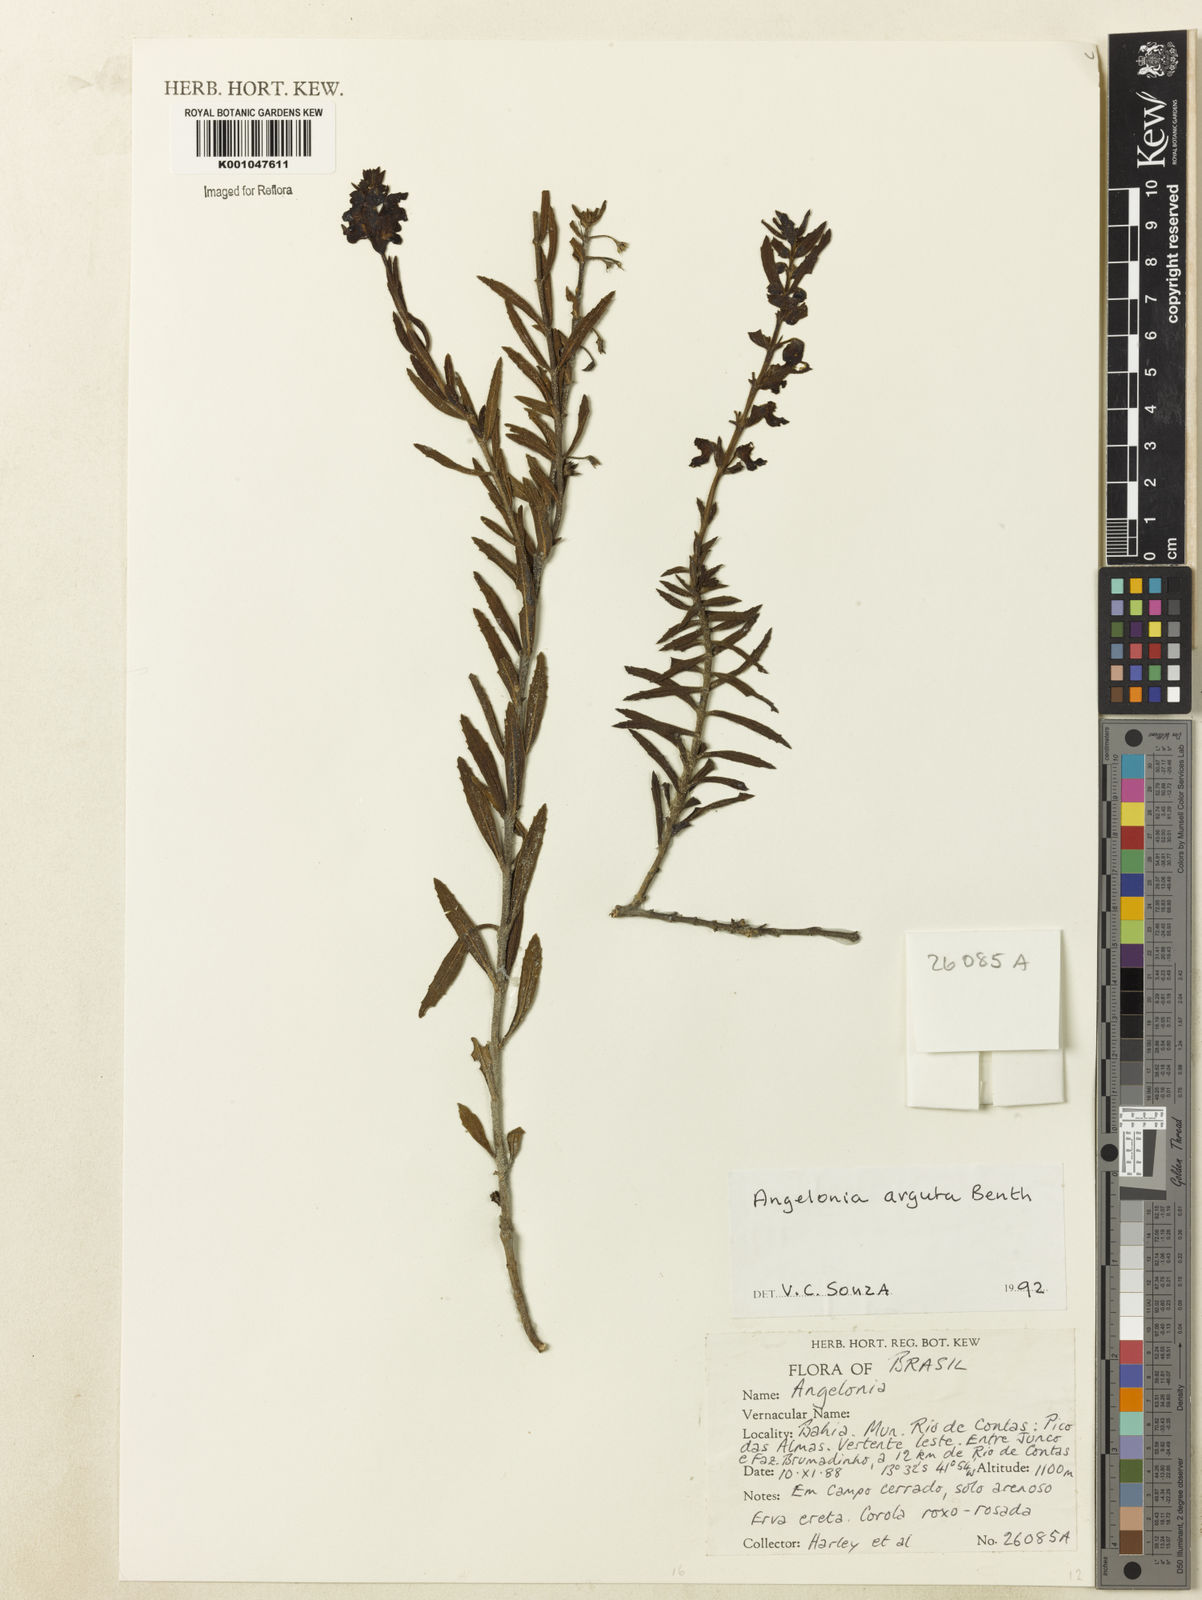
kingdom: Plantae
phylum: Tracheophyta
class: Magnoliopsida
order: Lamiales
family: Plantaginaceae
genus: Angelonia
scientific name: Angelonia arguta
